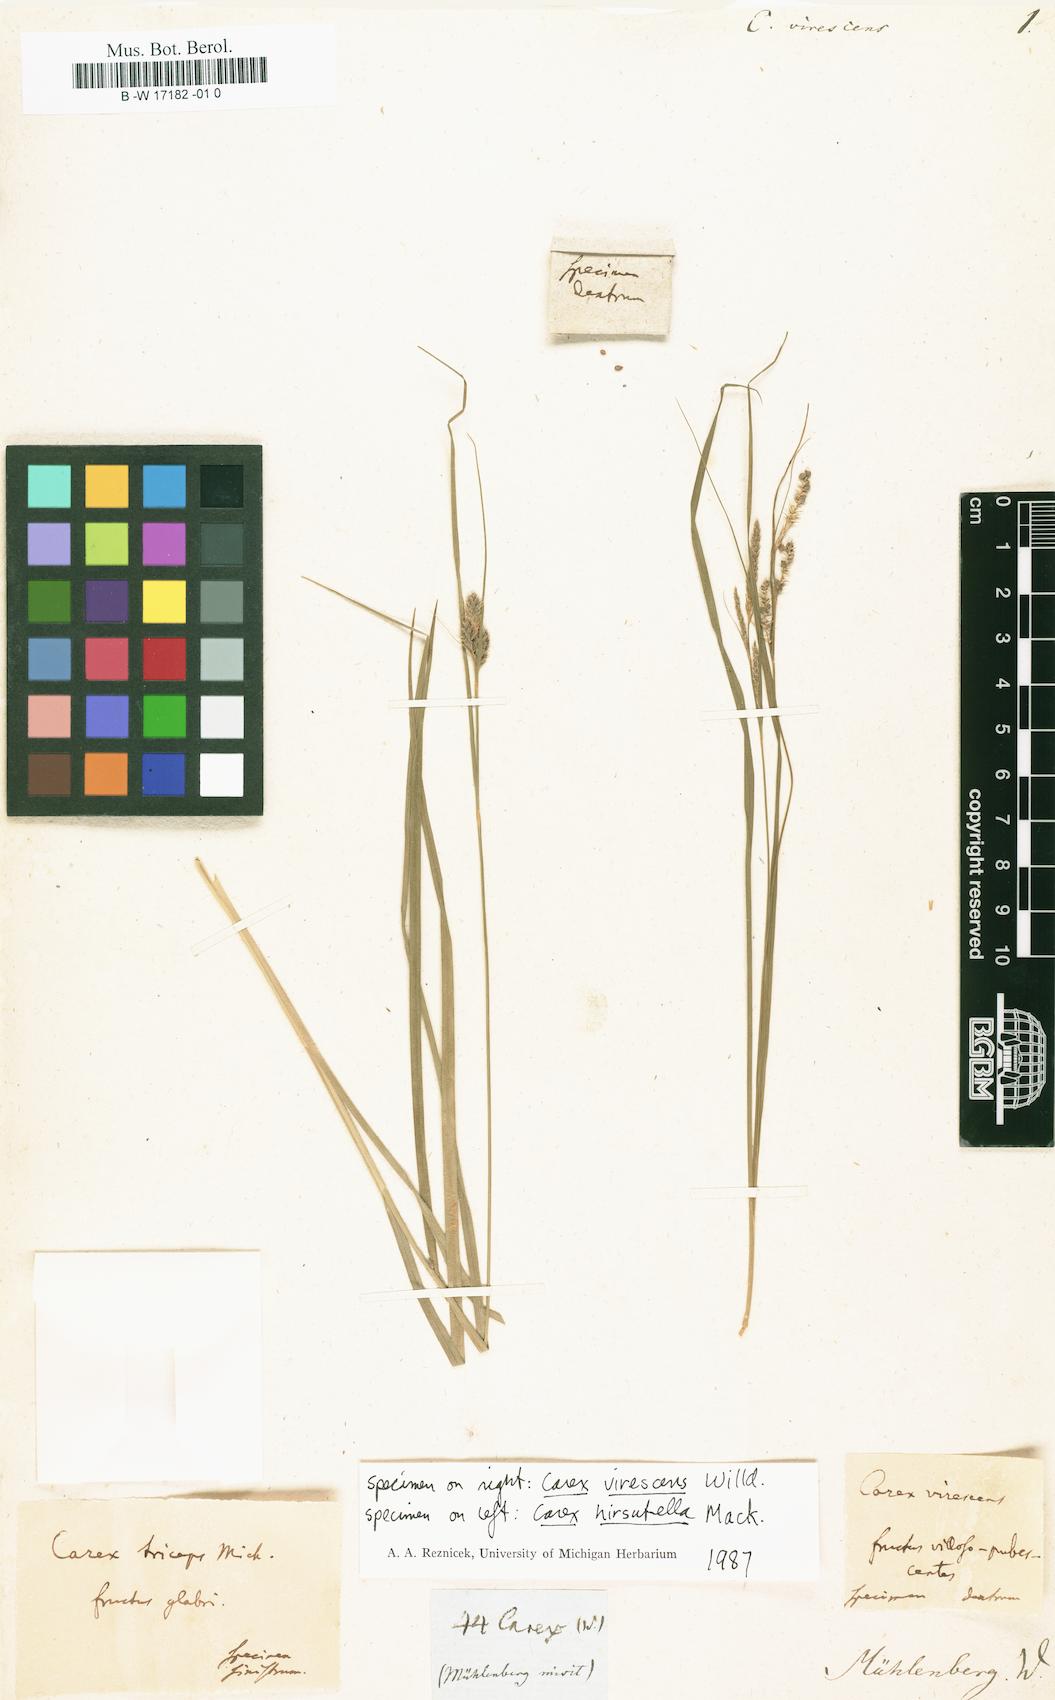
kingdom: Plantae
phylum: Tracheophyta
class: Liliopsida
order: Poales
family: Cyperaceae
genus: Carex
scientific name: Carex virescens
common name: Ribbed sedge
